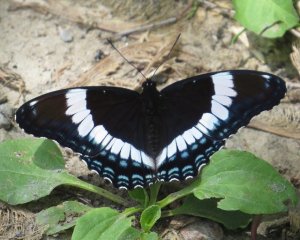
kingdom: Animalia
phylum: Arthropoda
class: Insecta
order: Lepidoptera
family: Nymphalidae
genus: Limenitis
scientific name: Limenitis arthemis
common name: Red-spotted Admiral
